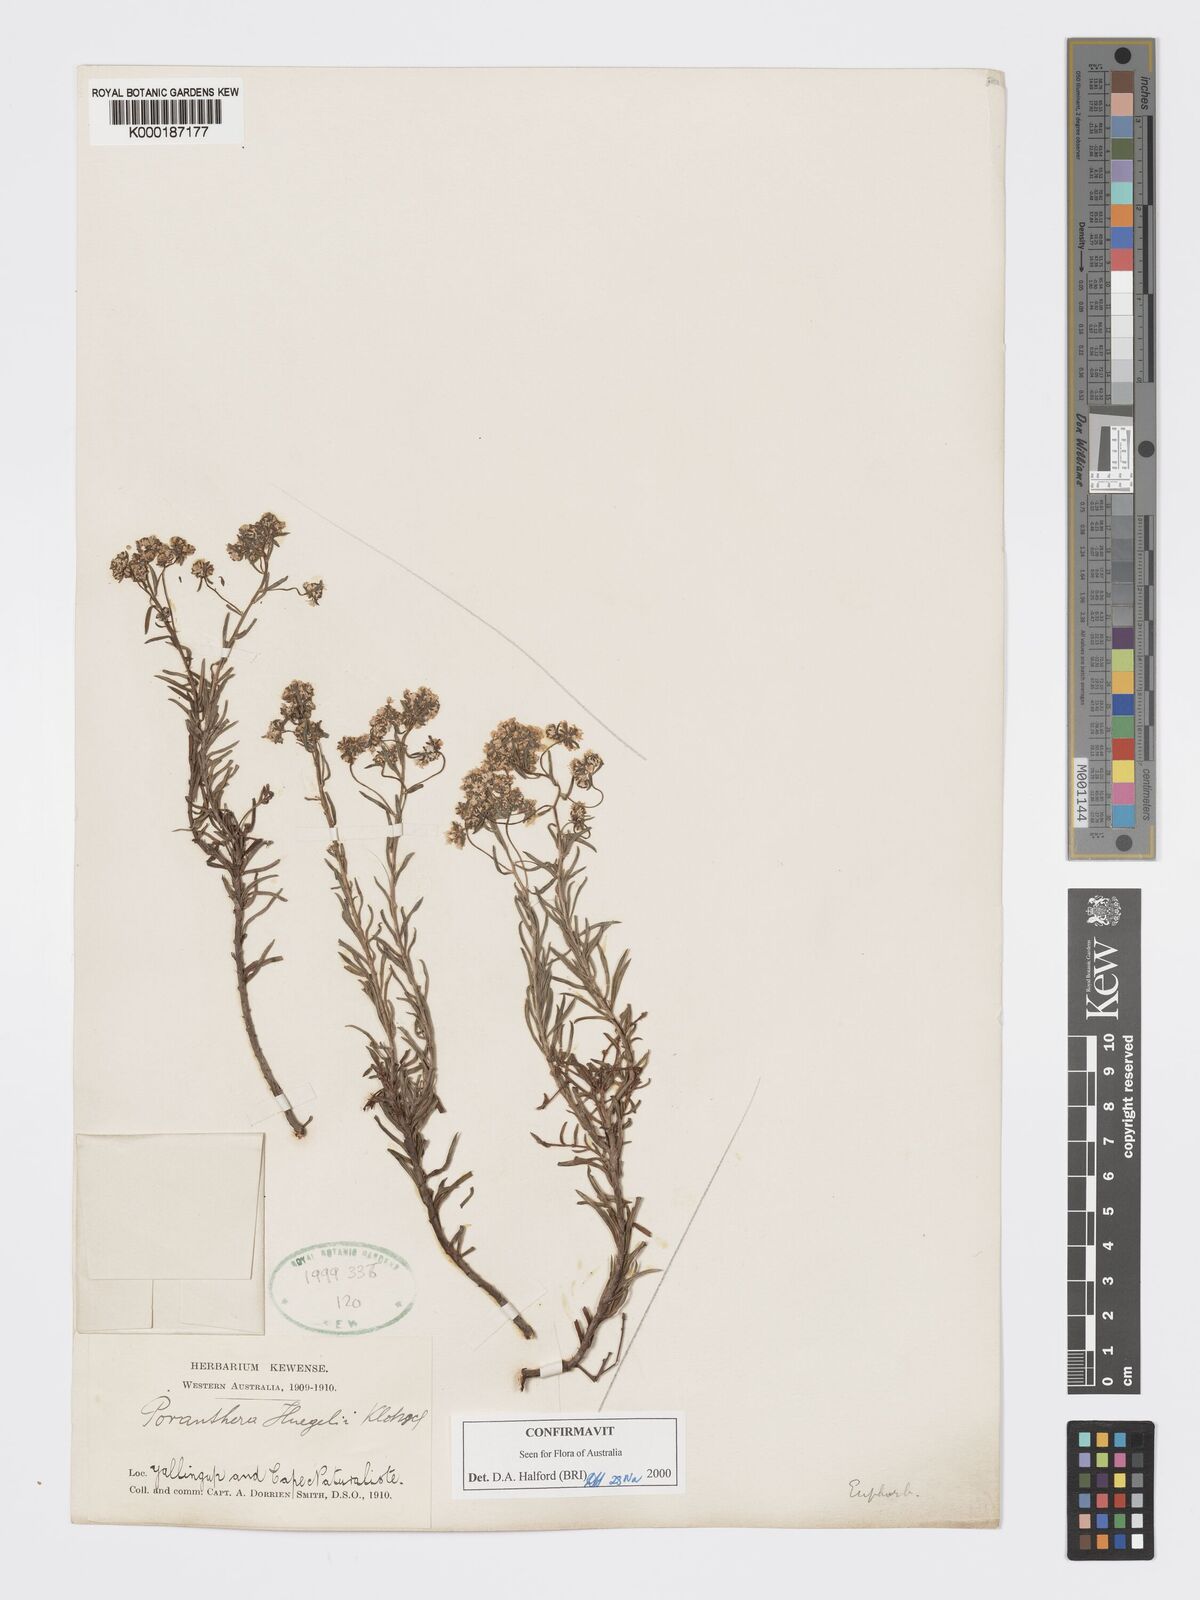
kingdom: Plantae
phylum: Tracheophyta
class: Magnoliopsida
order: Malpighiales
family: Phyllanthaceae
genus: Poranthera
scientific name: Poranthera huegelii
